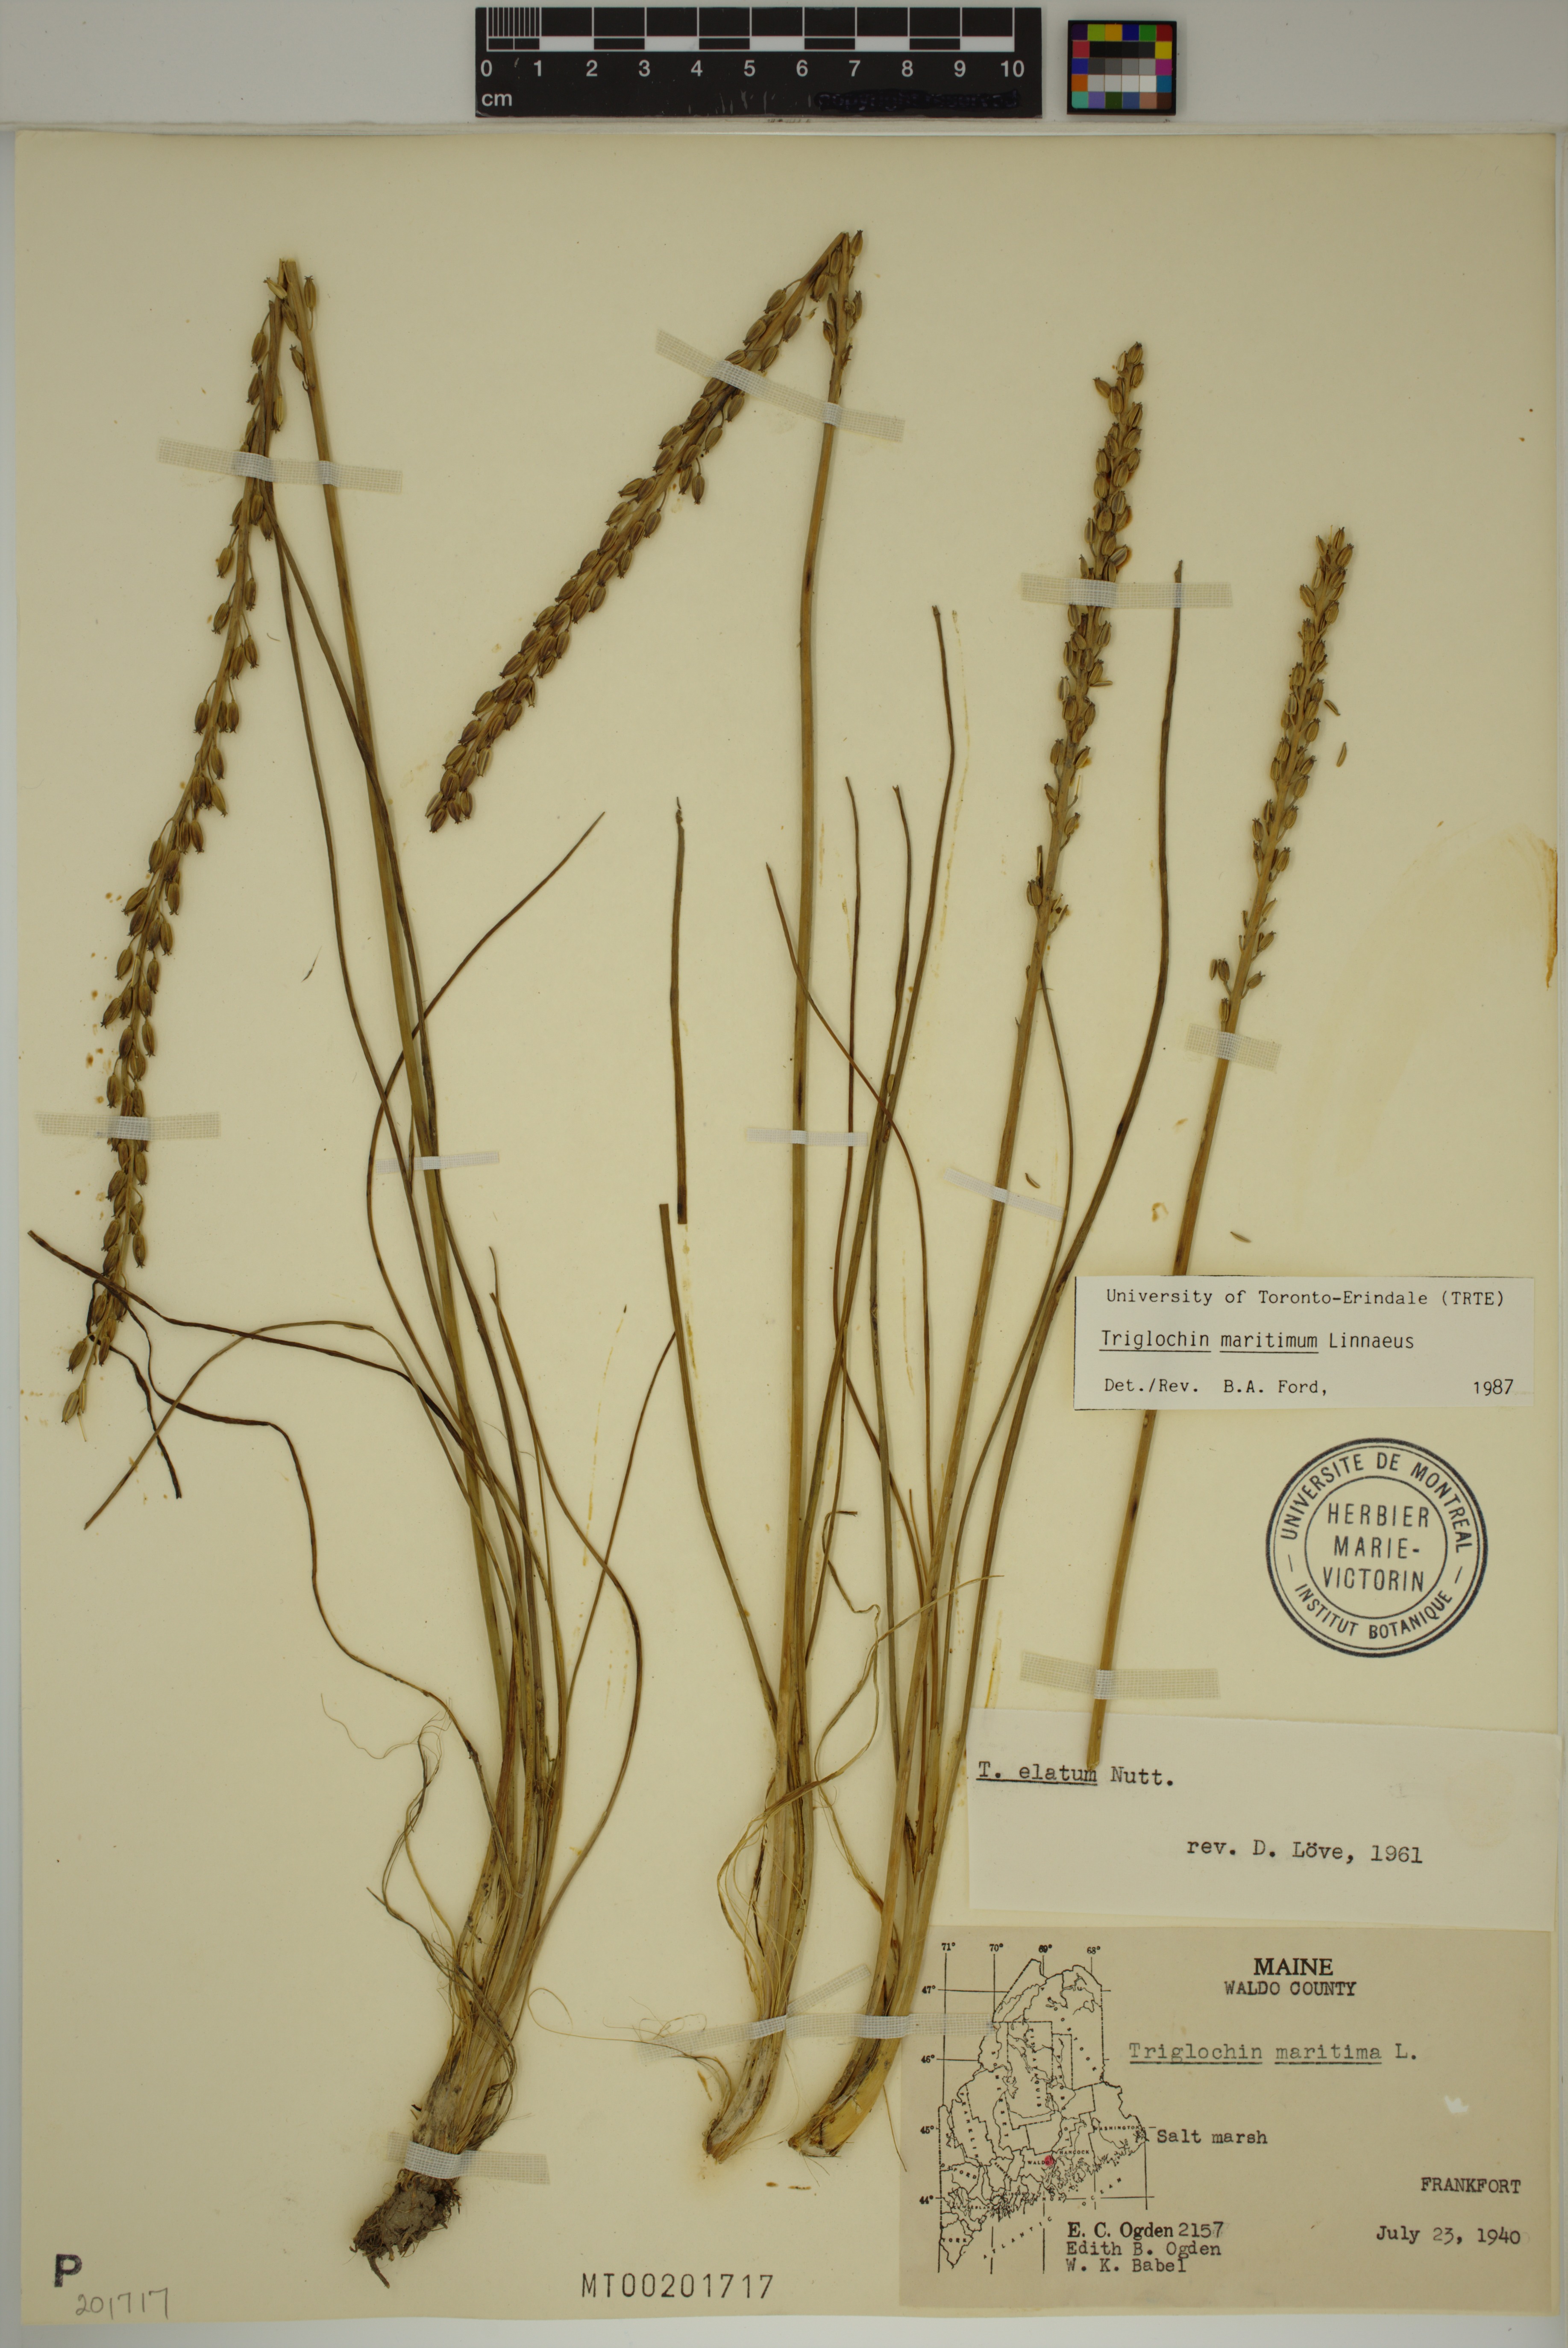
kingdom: Plantae
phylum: Tracheophyta
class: Liliopsida
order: Alismatales
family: Juncaginaceae
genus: Triglochin
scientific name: Triglochin maritima
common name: Sea arrowgrass
